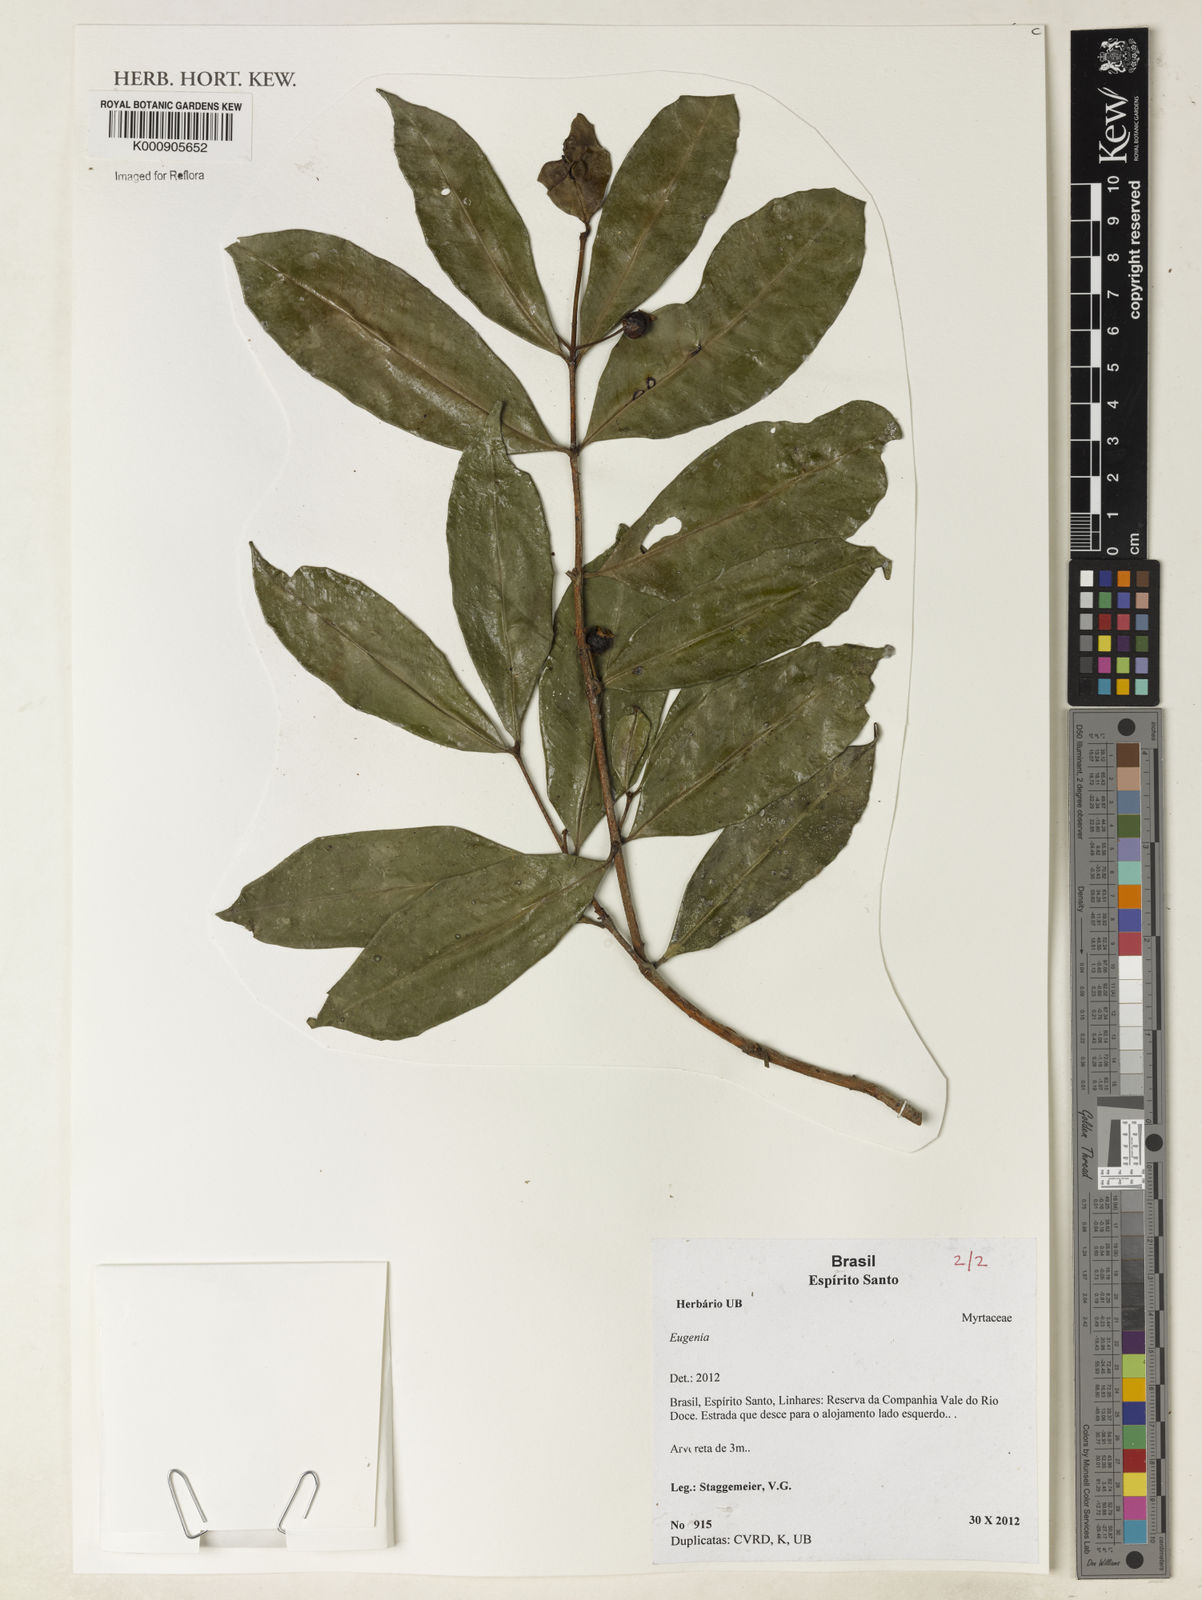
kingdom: Plantae
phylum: Tracheophyta
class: Magnoliopsida
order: Myrtales
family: Myrtaceae
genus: Eugenia
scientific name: Eugenia
